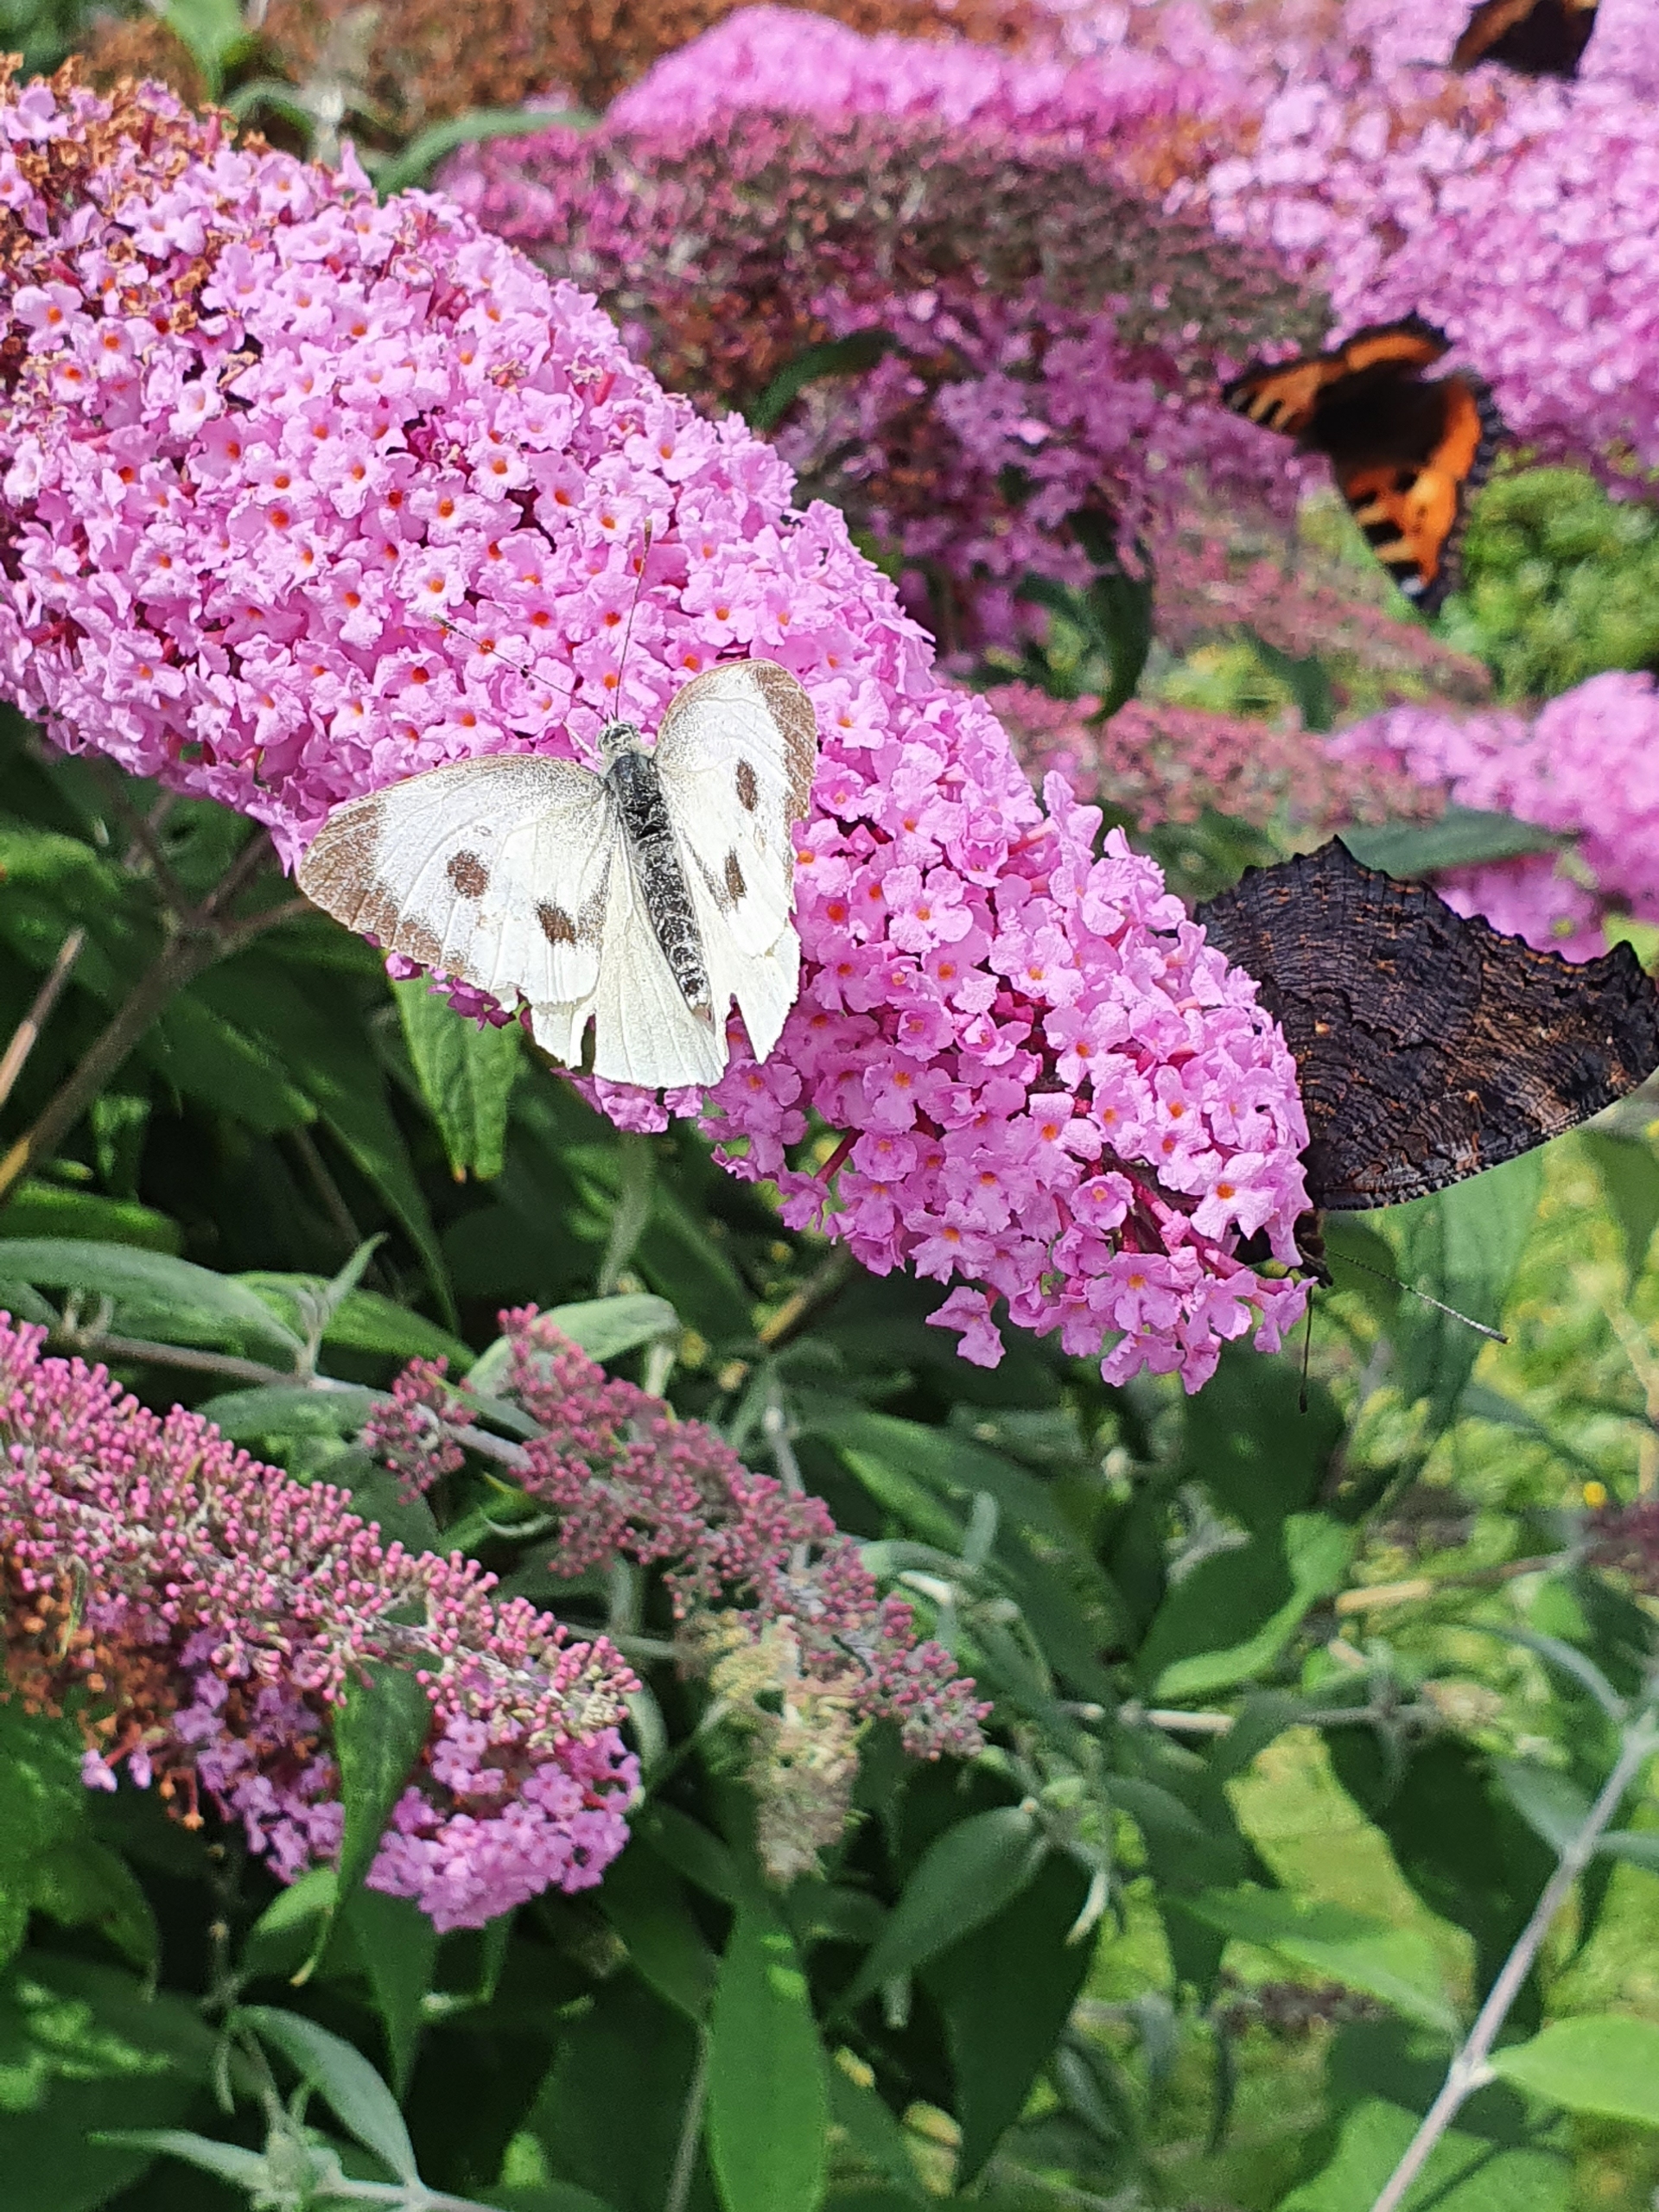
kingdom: Animalia
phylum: Arthropoda
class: Insecta
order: Lepidoptera
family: Pieridae
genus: Pieris
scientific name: Pieris brassicae
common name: Stor kålsommerfugl
